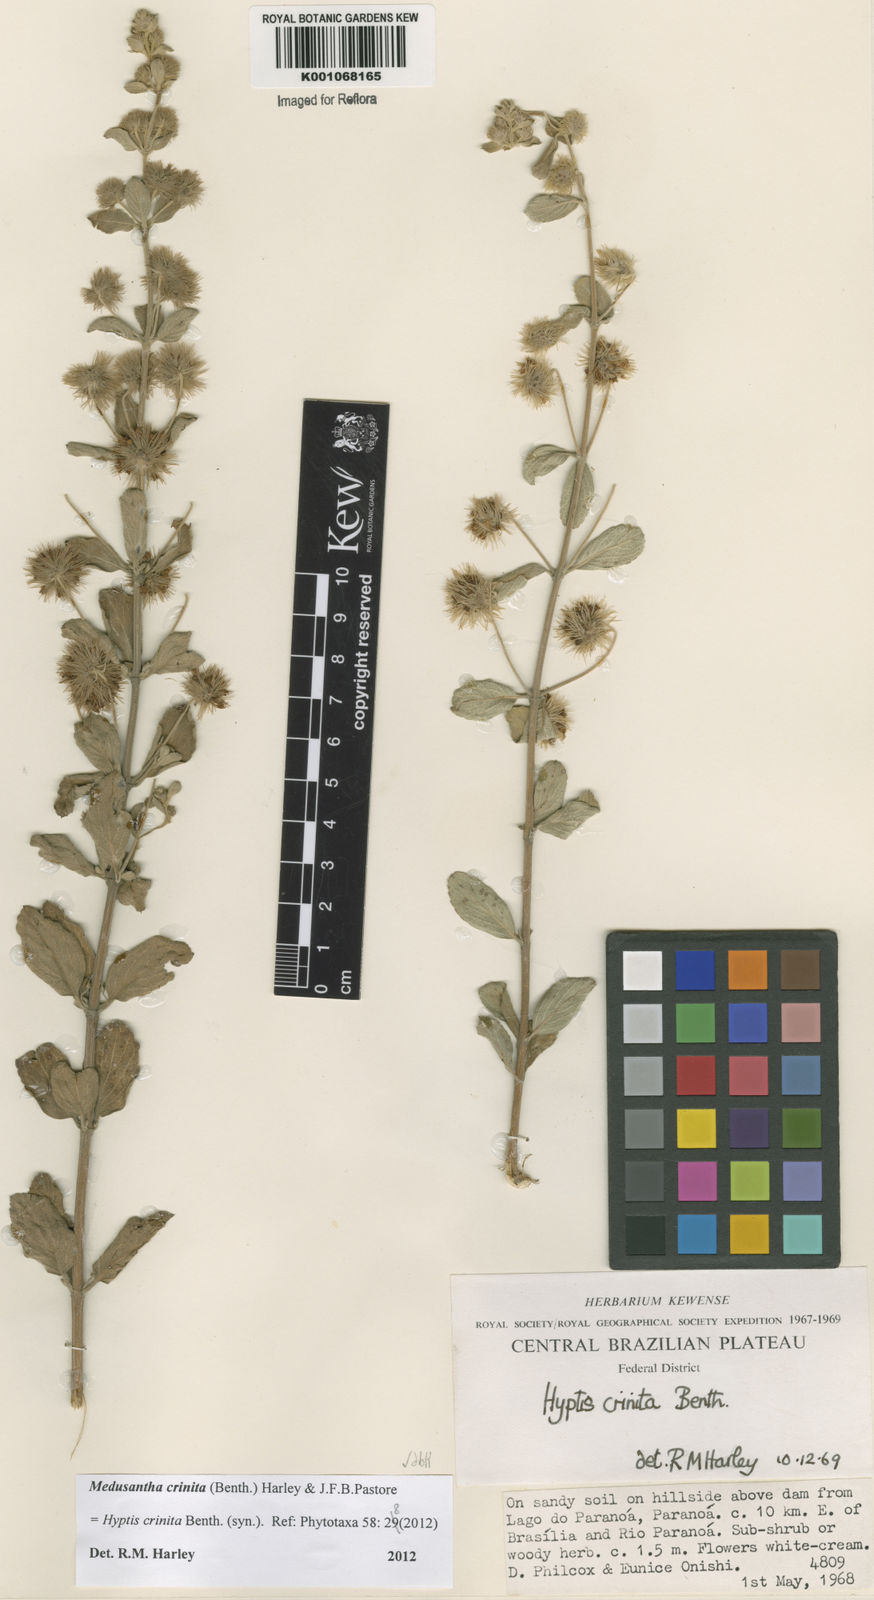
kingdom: Plantae
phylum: Tracheophyta
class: Magnoliopsida
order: Lamiales
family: Lamiaceae
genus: Medusantha
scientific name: Medusantha crinita
